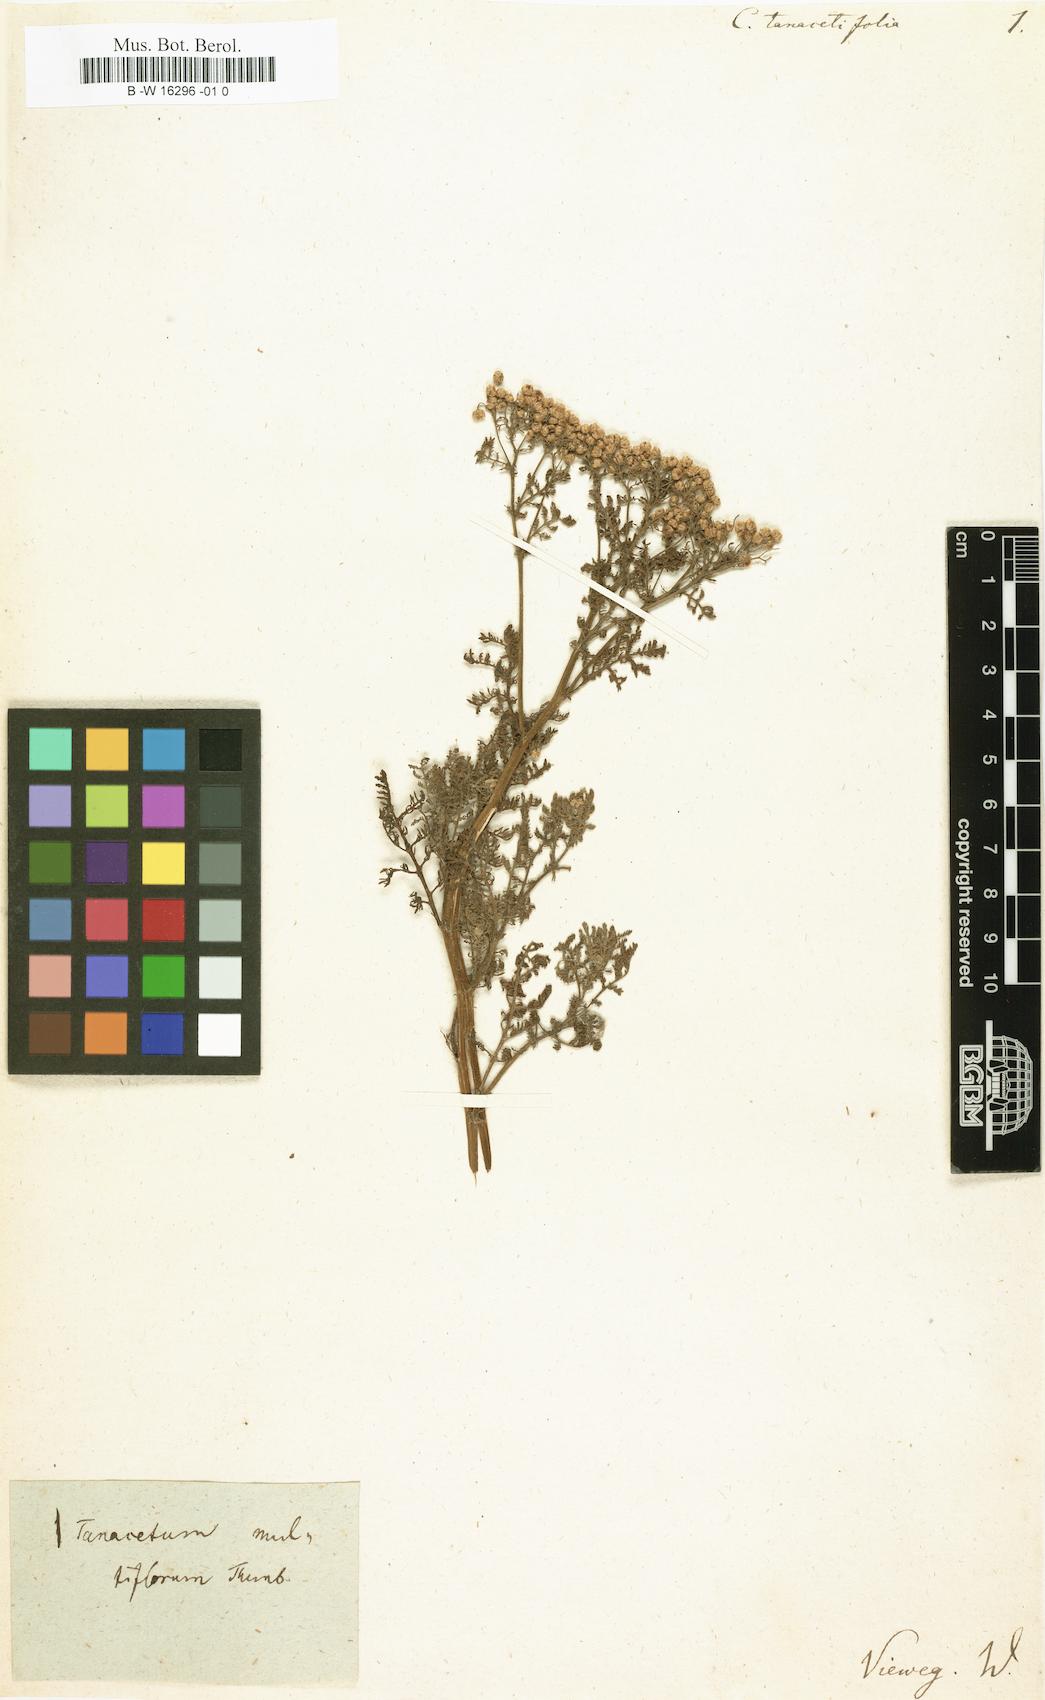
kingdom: Plantae
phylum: Tracheophyta
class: Magnoliopsida
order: Asterales
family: Asteraceae
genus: Oncosiphon
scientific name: Oncosiphon suffruticosus
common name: Shrubby mayweed
